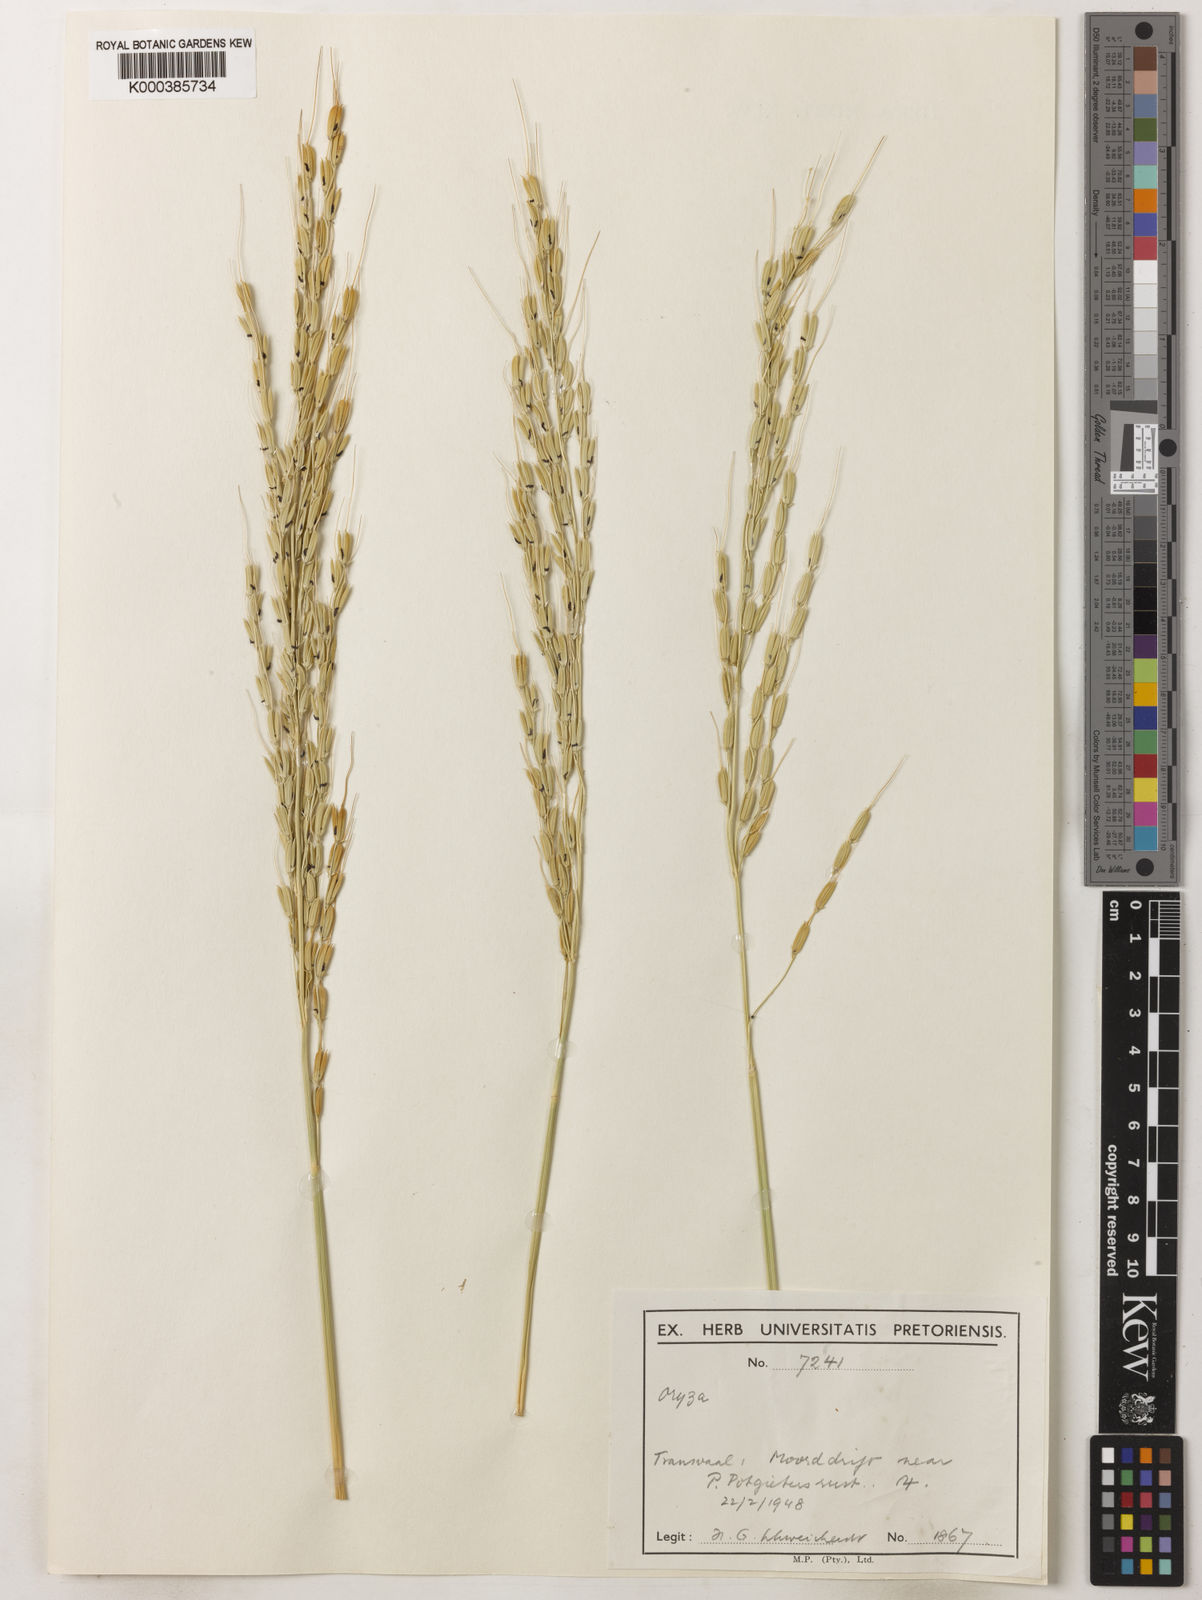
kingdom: Plantae
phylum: Tracheophyta
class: Liliopsida
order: Poales
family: Poaceae
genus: Oryza
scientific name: Oryza longistaminata
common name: Red rice
